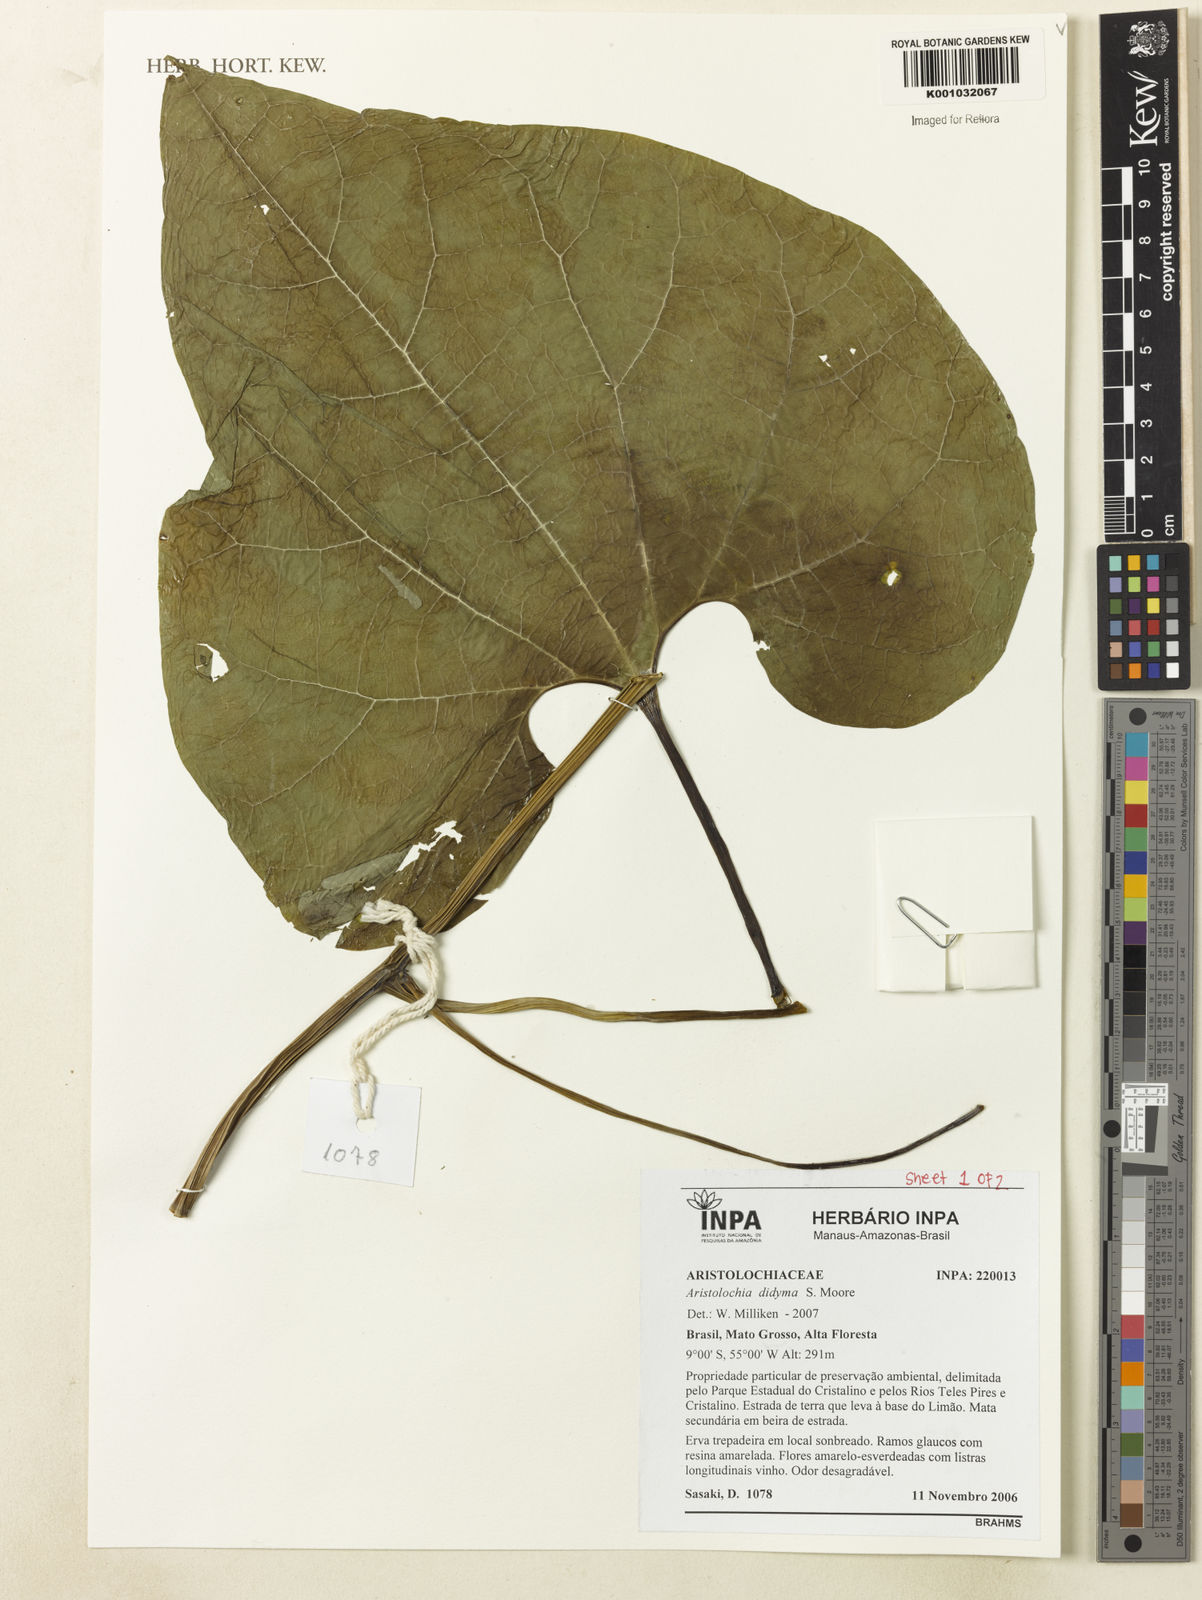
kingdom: Plantae
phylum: Tracheophyta
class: Magnoliopsida
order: Piperales
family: Aristolochiaceae
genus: Aristolochia
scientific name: Aristolochia
